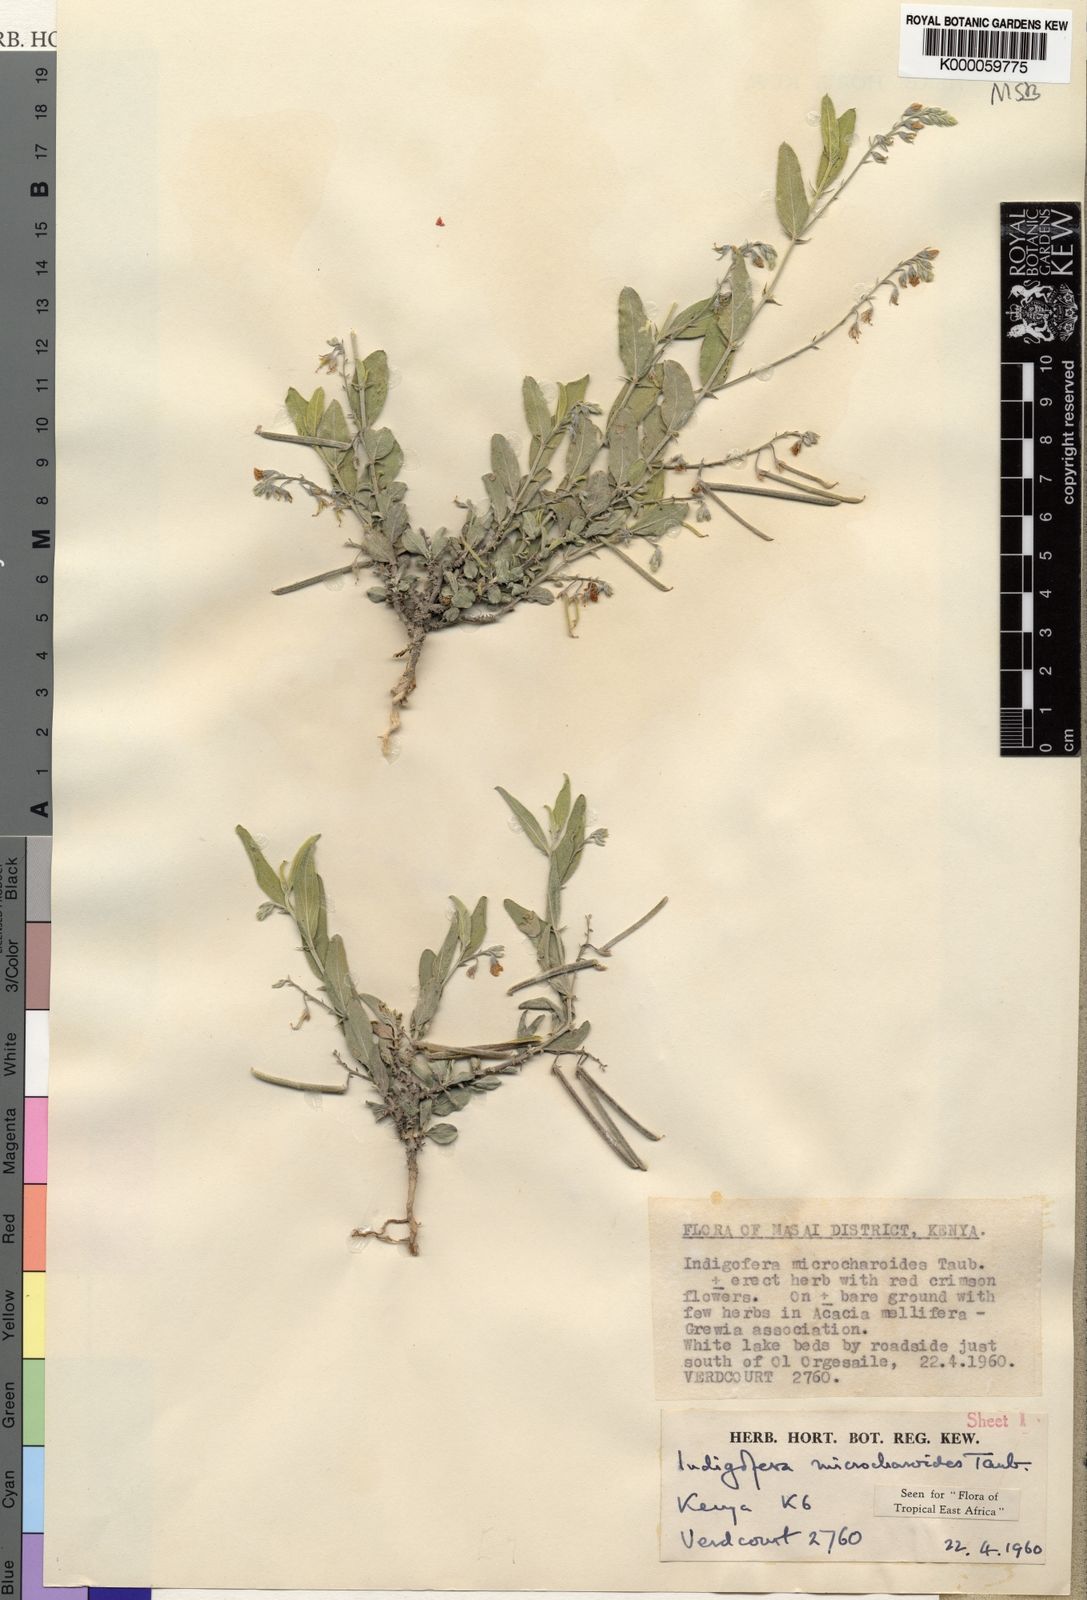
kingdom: Plantae
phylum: Tracheophyta
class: Magnoliopsida
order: Fabales
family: Fabaceae
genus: Microcharis
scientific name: Microcharis microcharoides
